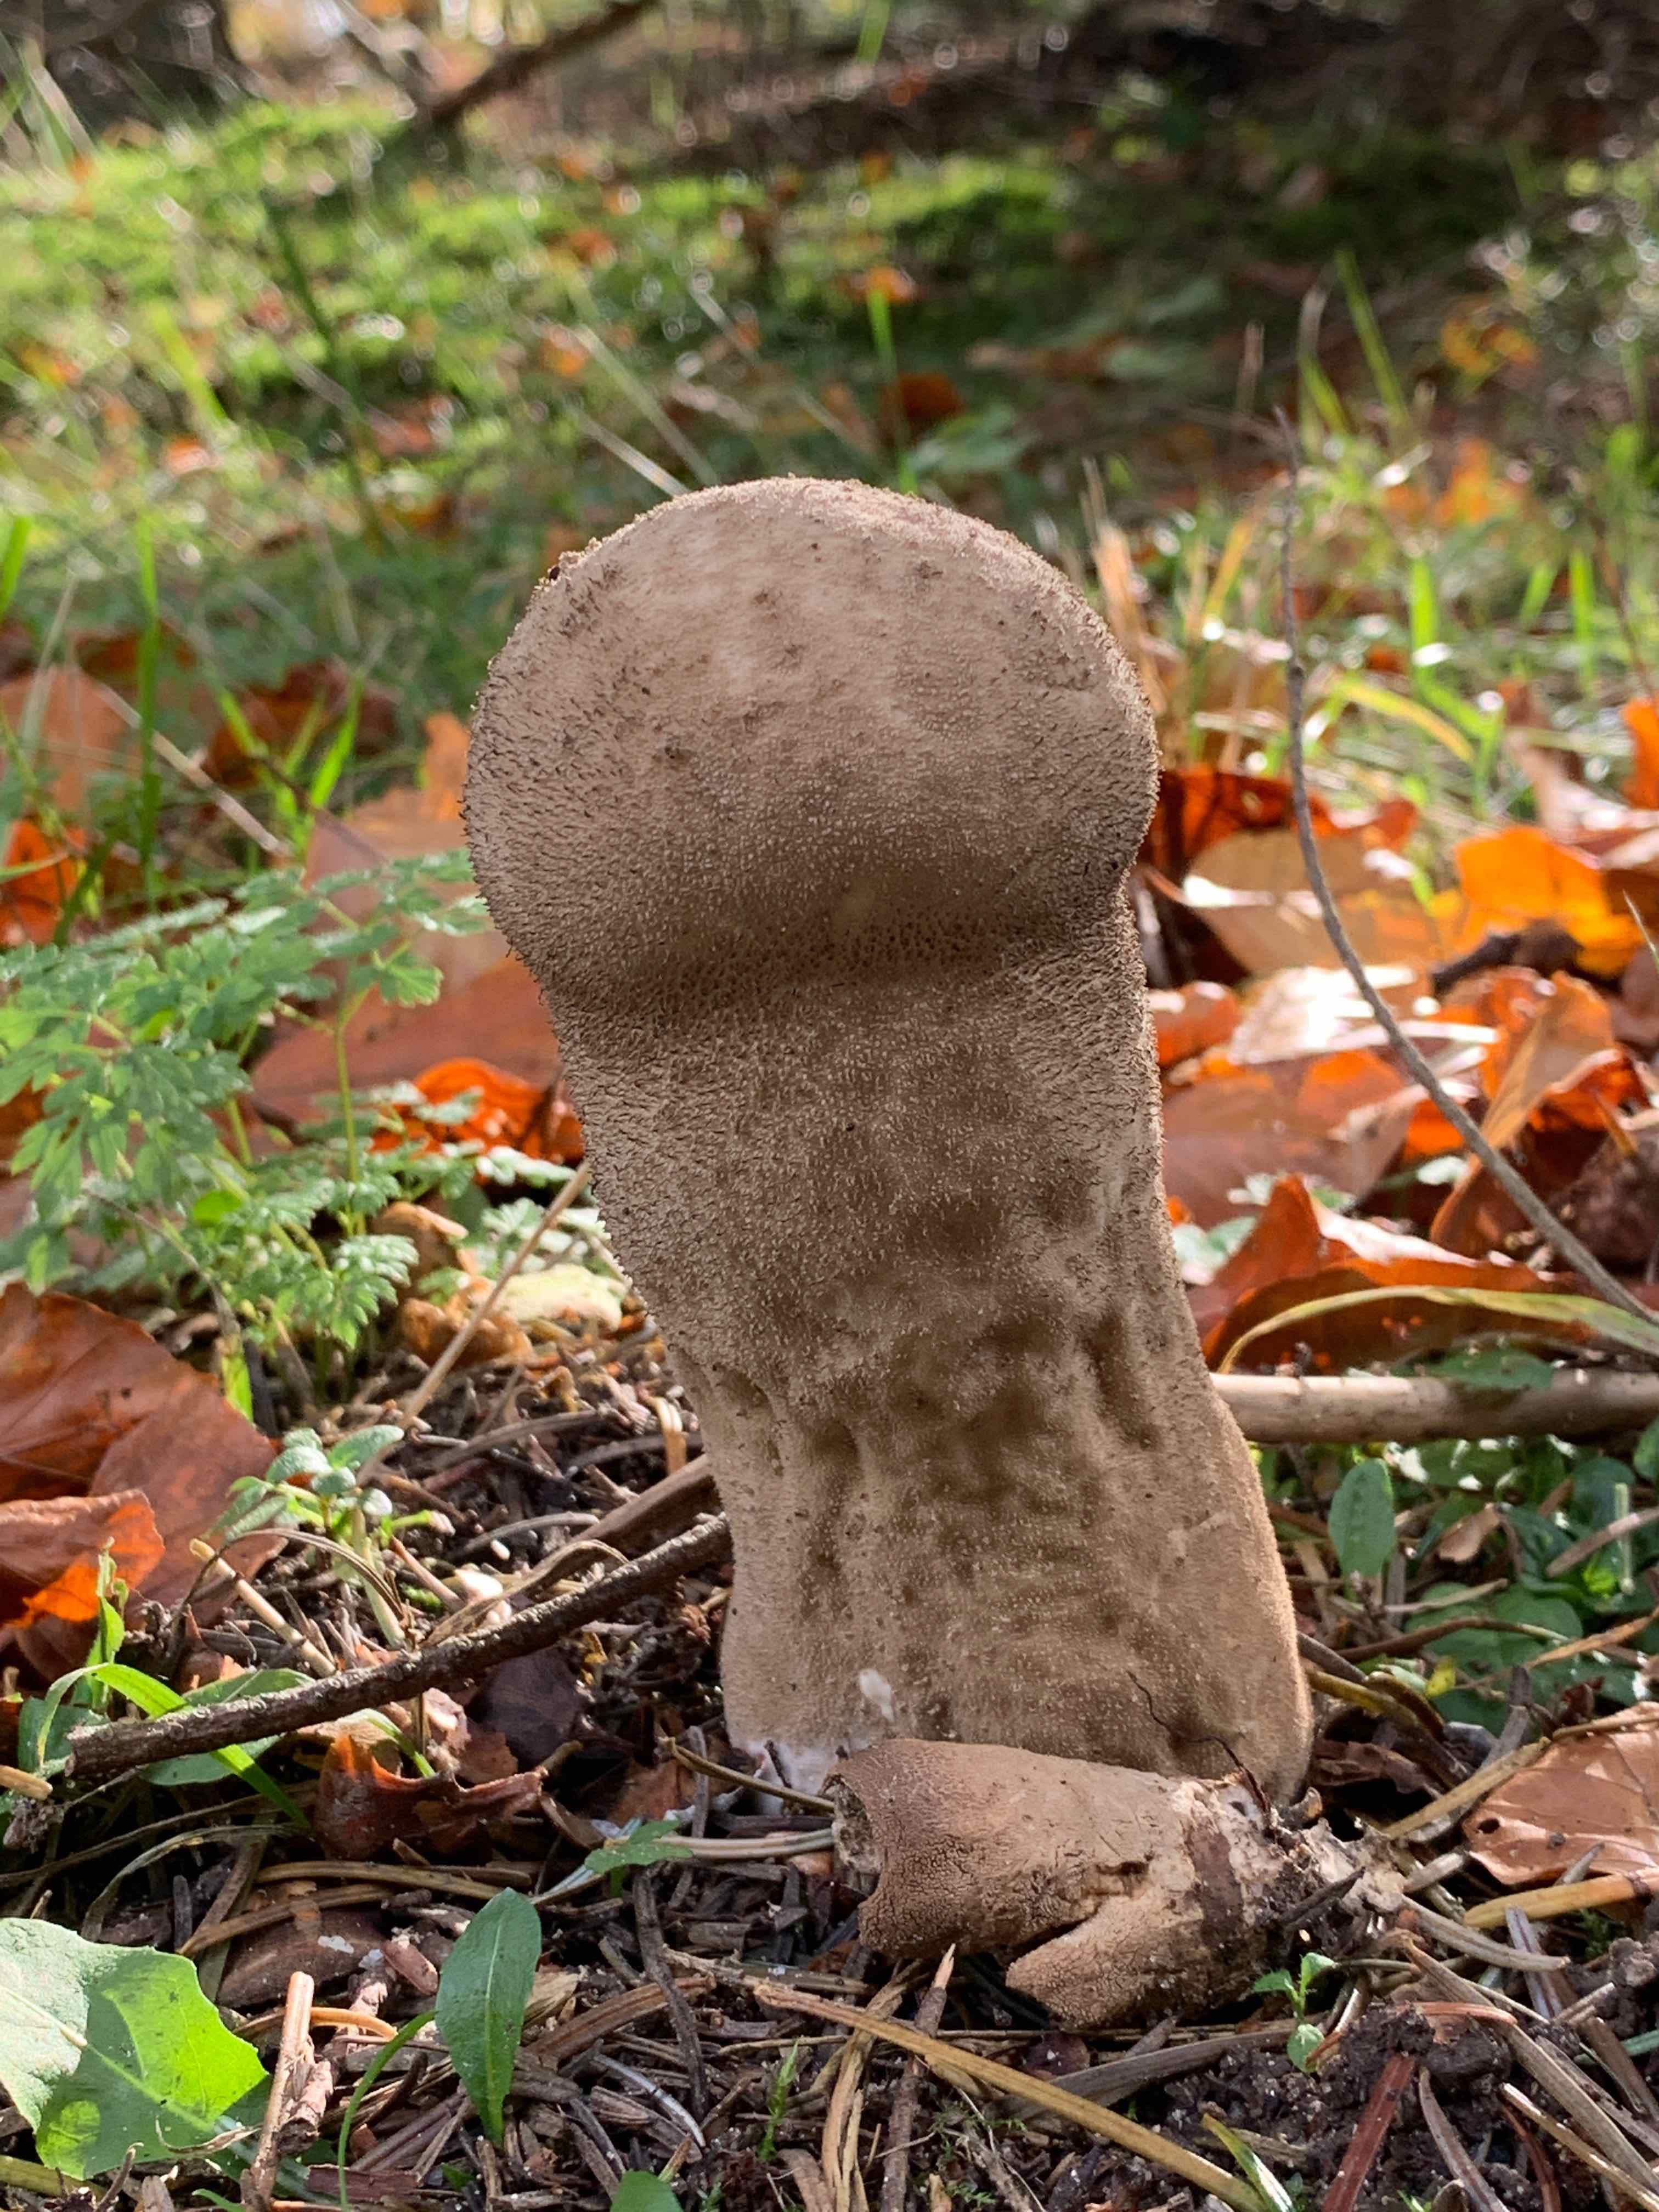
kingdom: Fungi
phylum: Basidiomycota
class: Agaricomycetes
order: Agaricales
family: Lycoperdaceae
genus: Lycoperdon
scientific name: Lycoperdon excipuliforme
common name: højstokket støvbold
